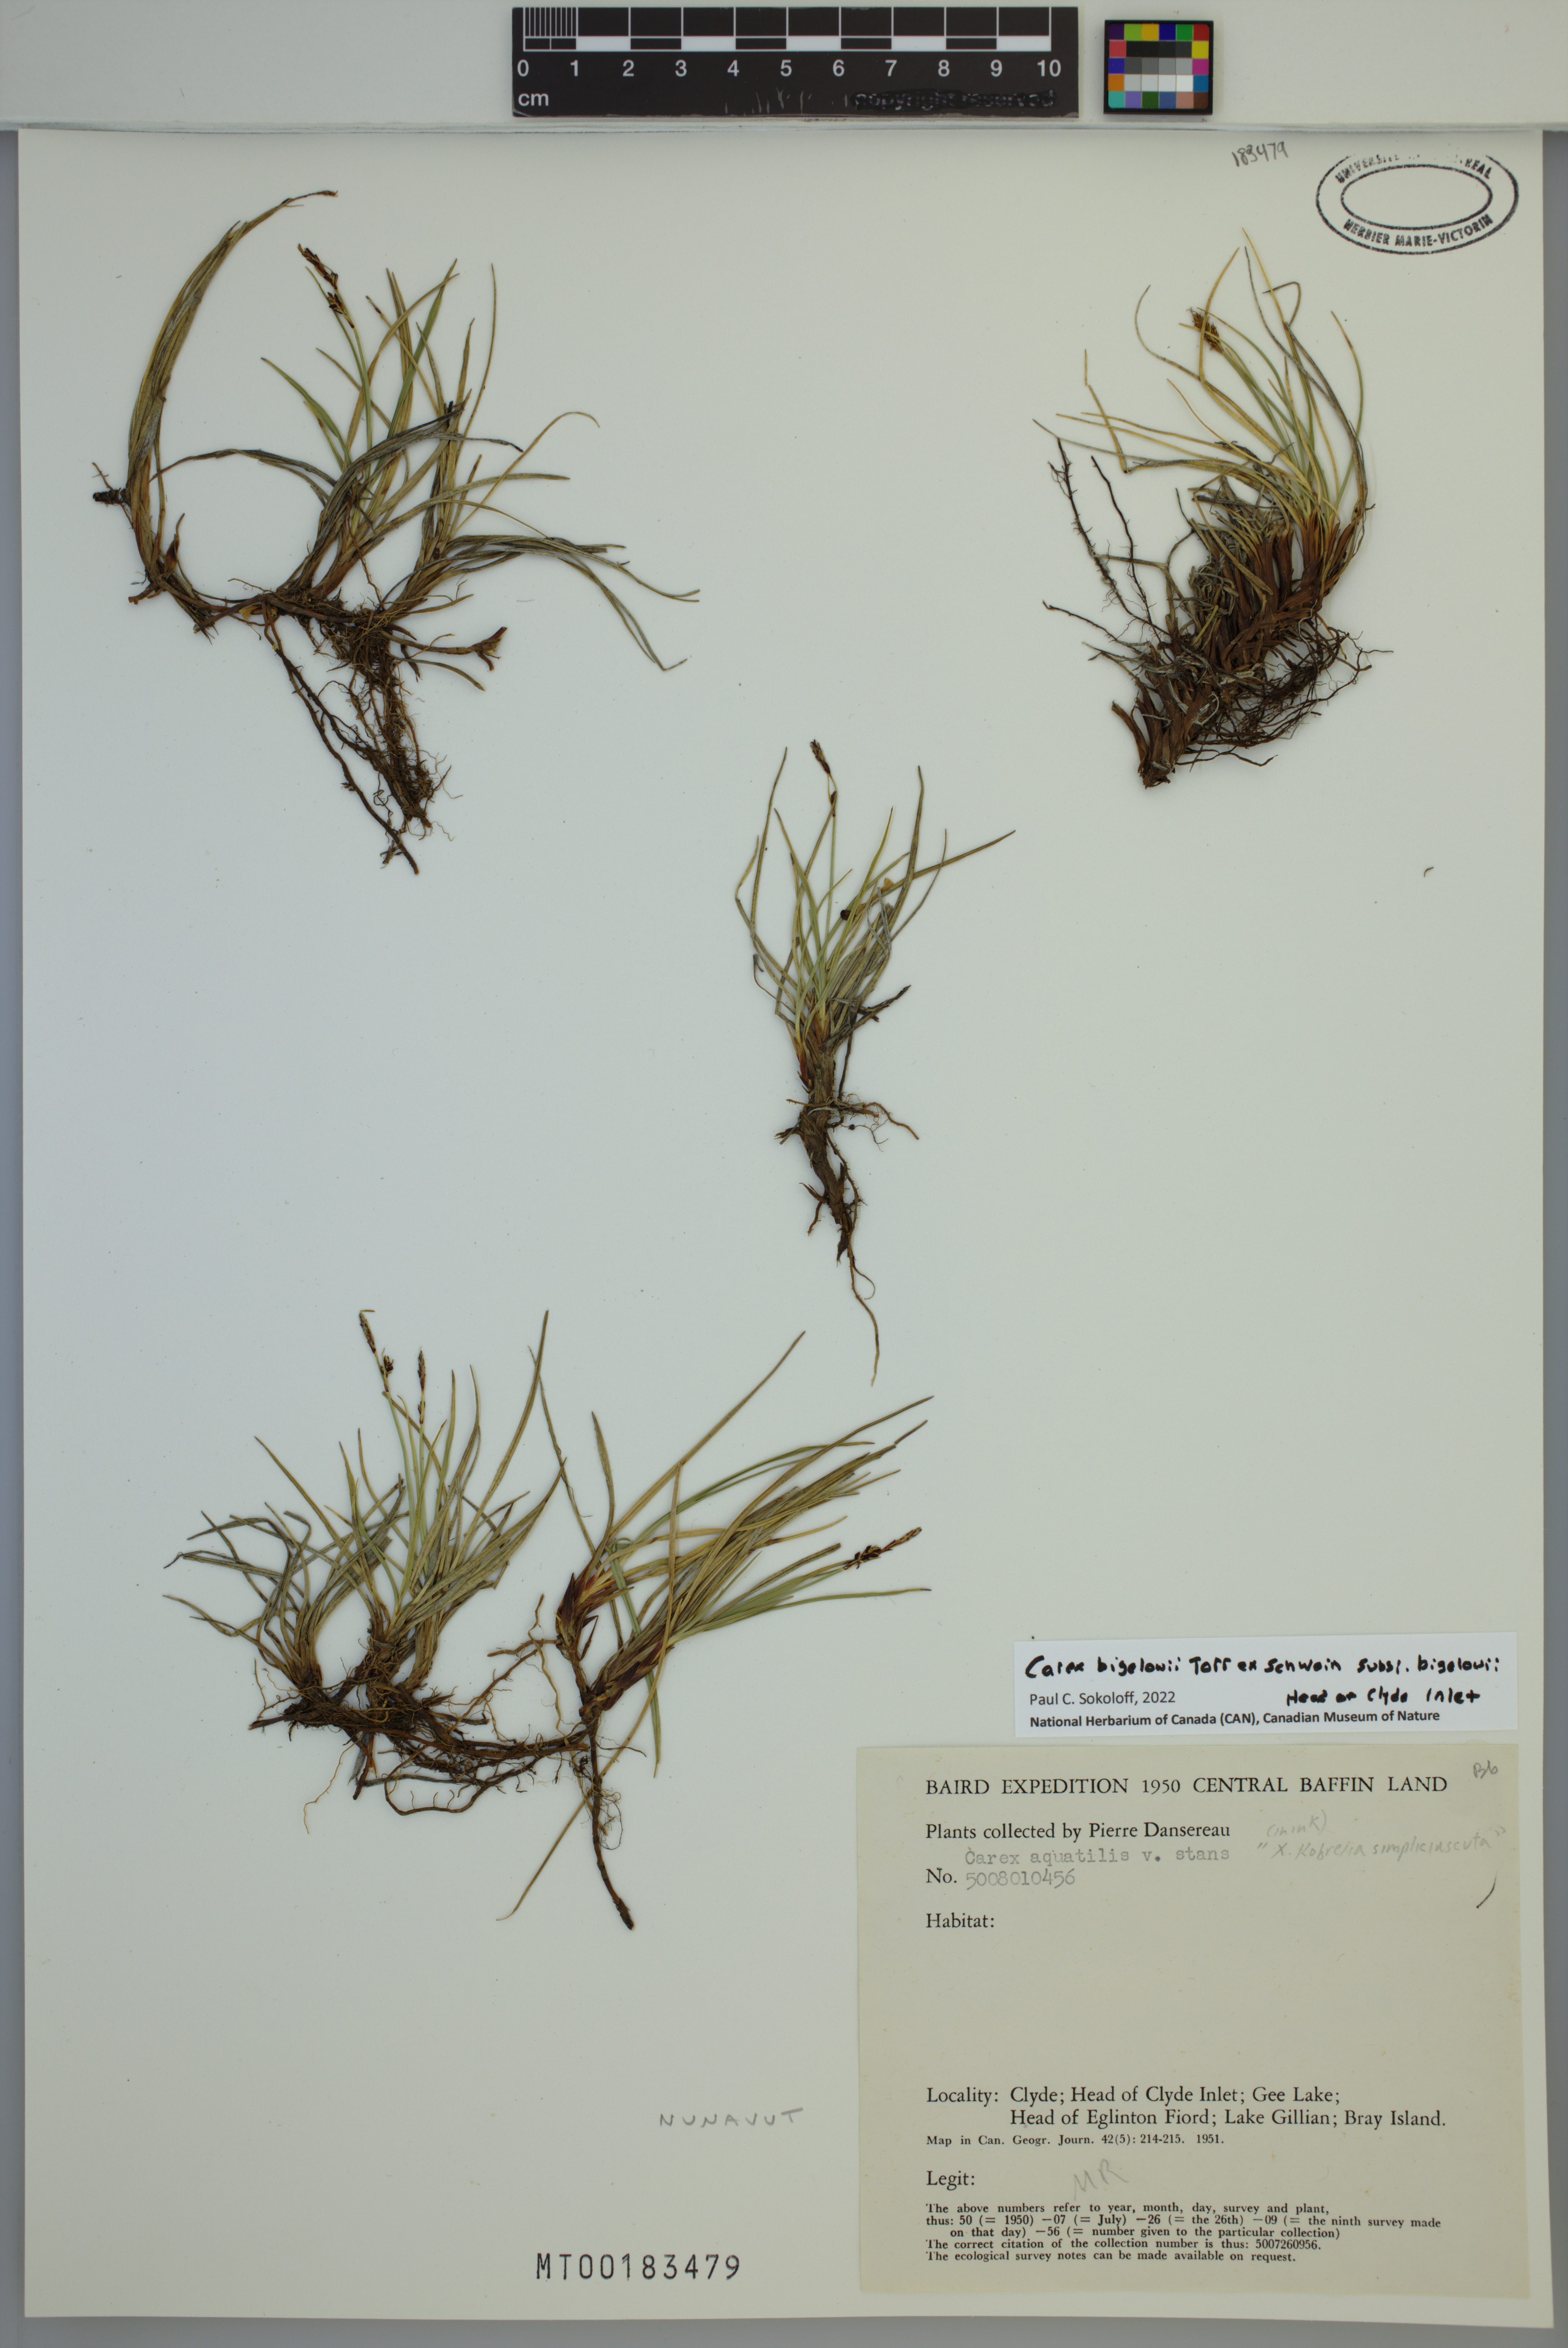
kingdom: Plantae
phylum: Tracheophyta
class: Liliopsida
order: Poales
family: Cyperaceae
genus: Carex
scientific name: Carex bigelowii
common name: Stiff sedge
